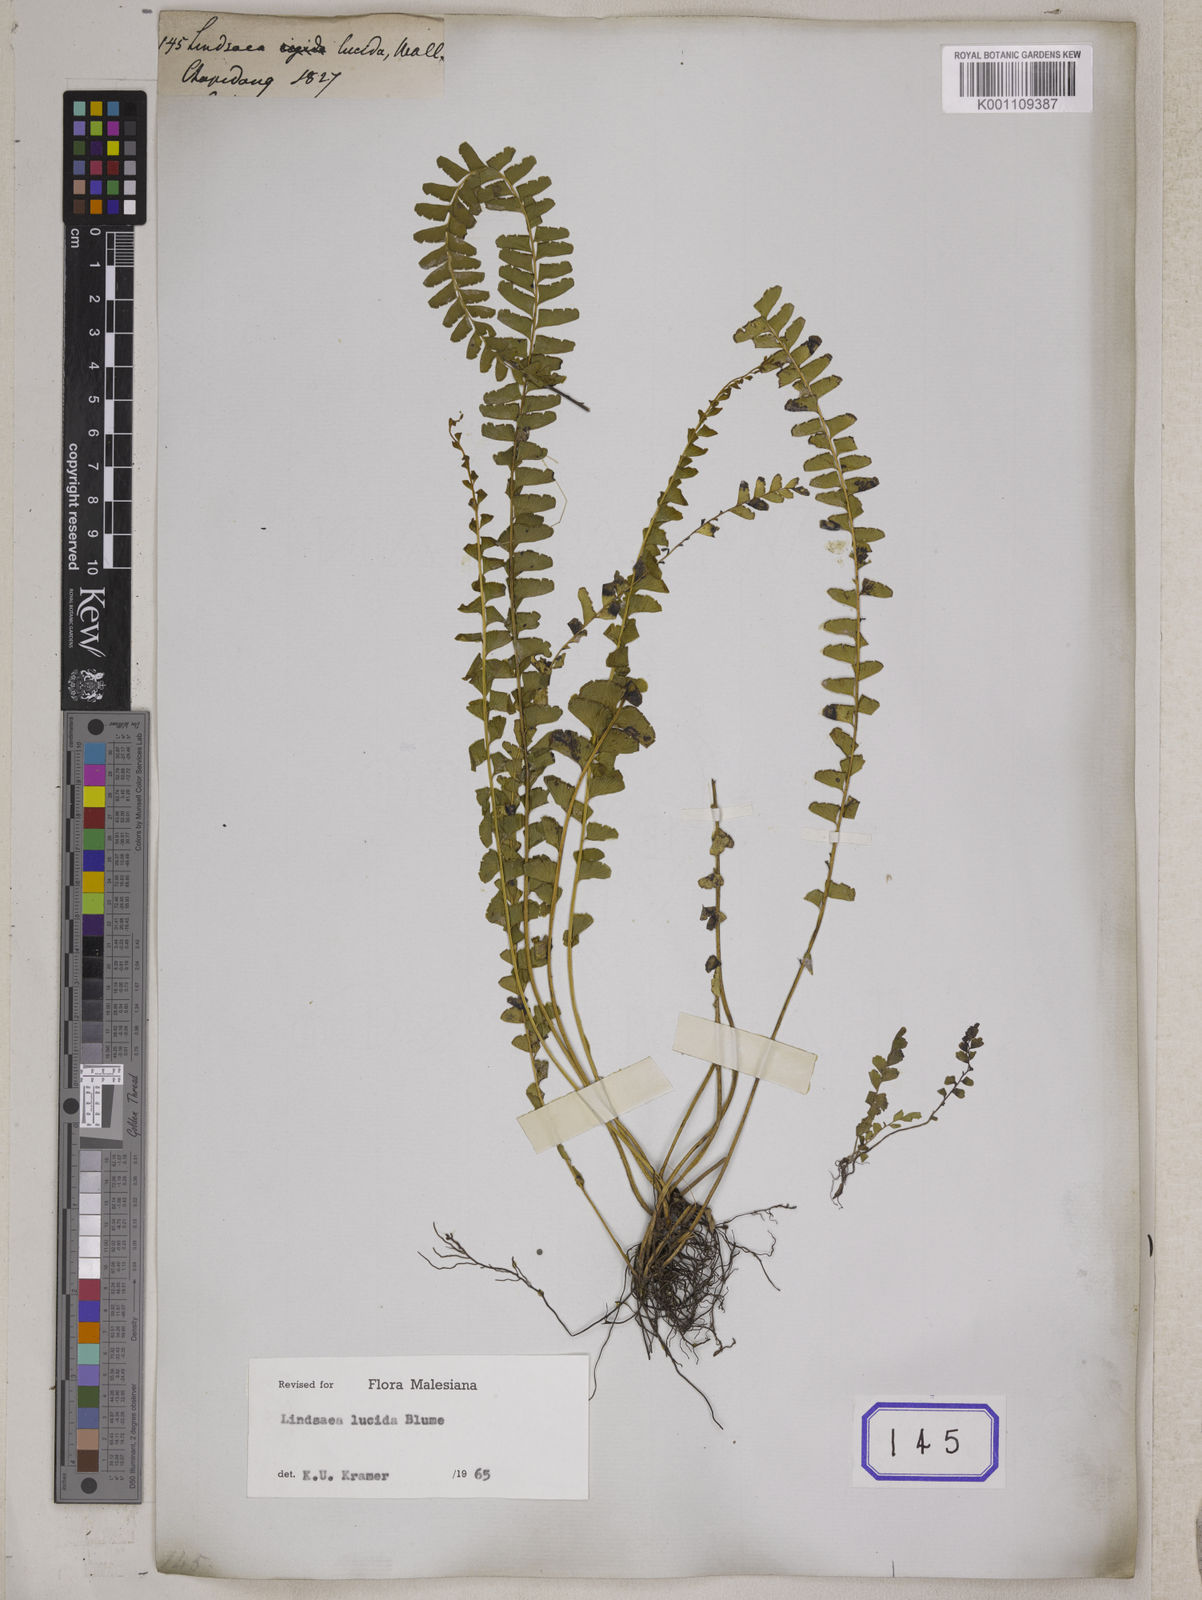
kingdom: Plantae
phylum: Tracheophyta
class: Polypodiopsida
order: Polypodiales
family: Lindsaeaceae
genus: Lindsaea
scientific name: Lindsaea
